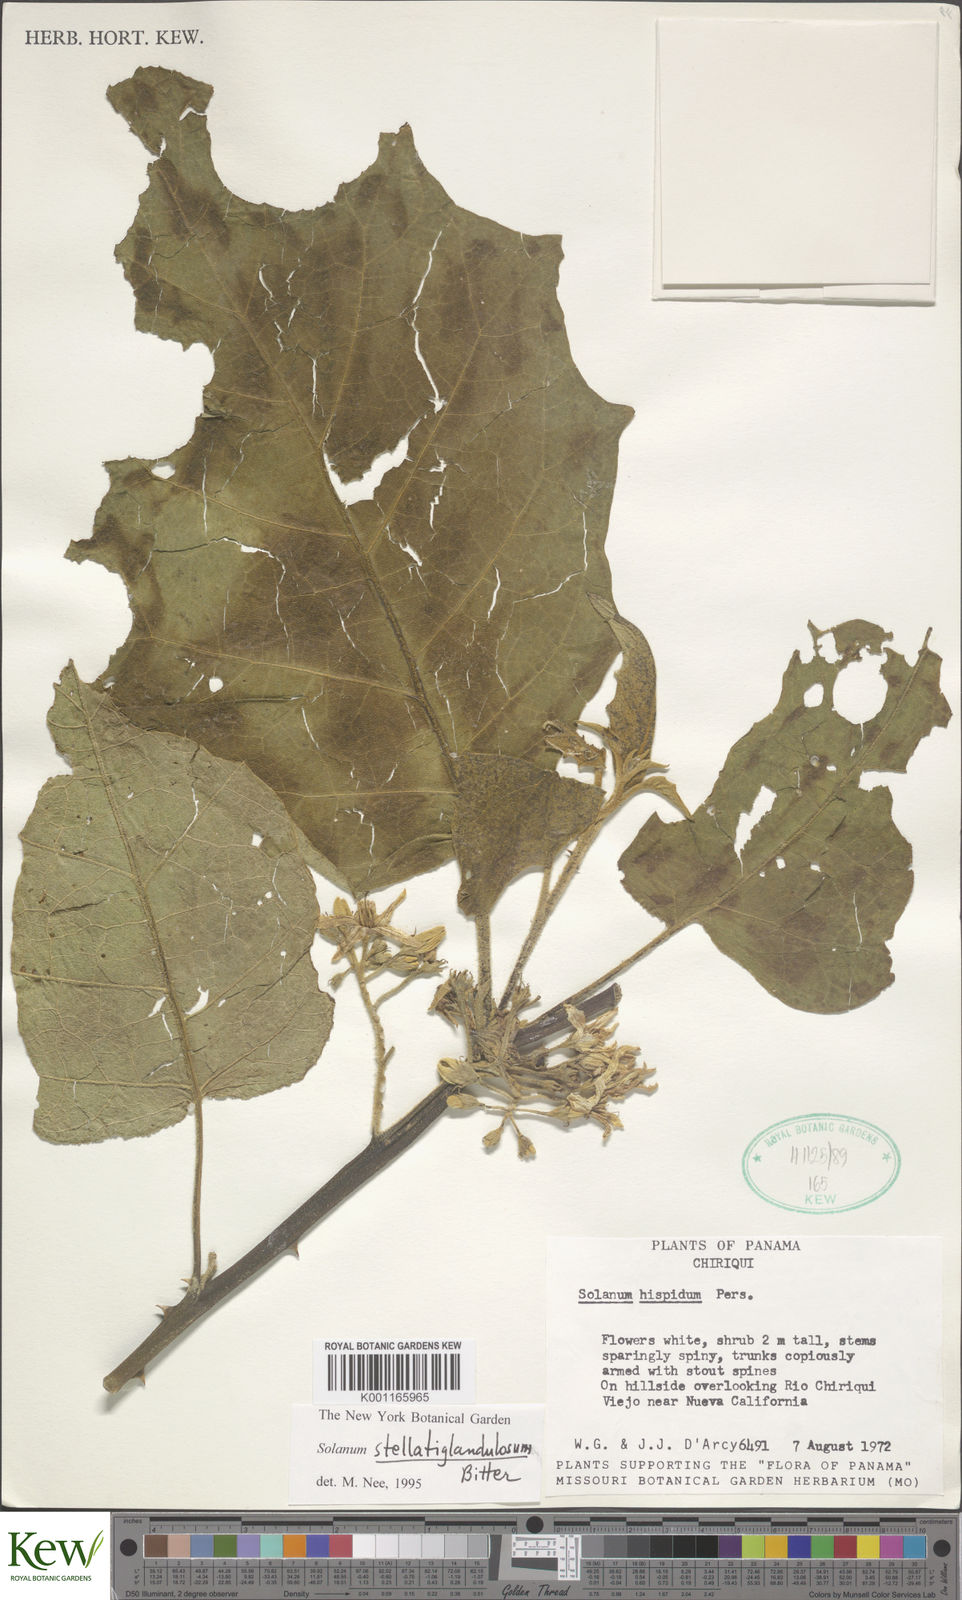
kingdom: Plantae
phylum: Tracheophyta
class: Magnoliopsida
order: Solanales
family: Solanaceae
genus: Solanum
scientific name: Solanum stellatiglandulosum
